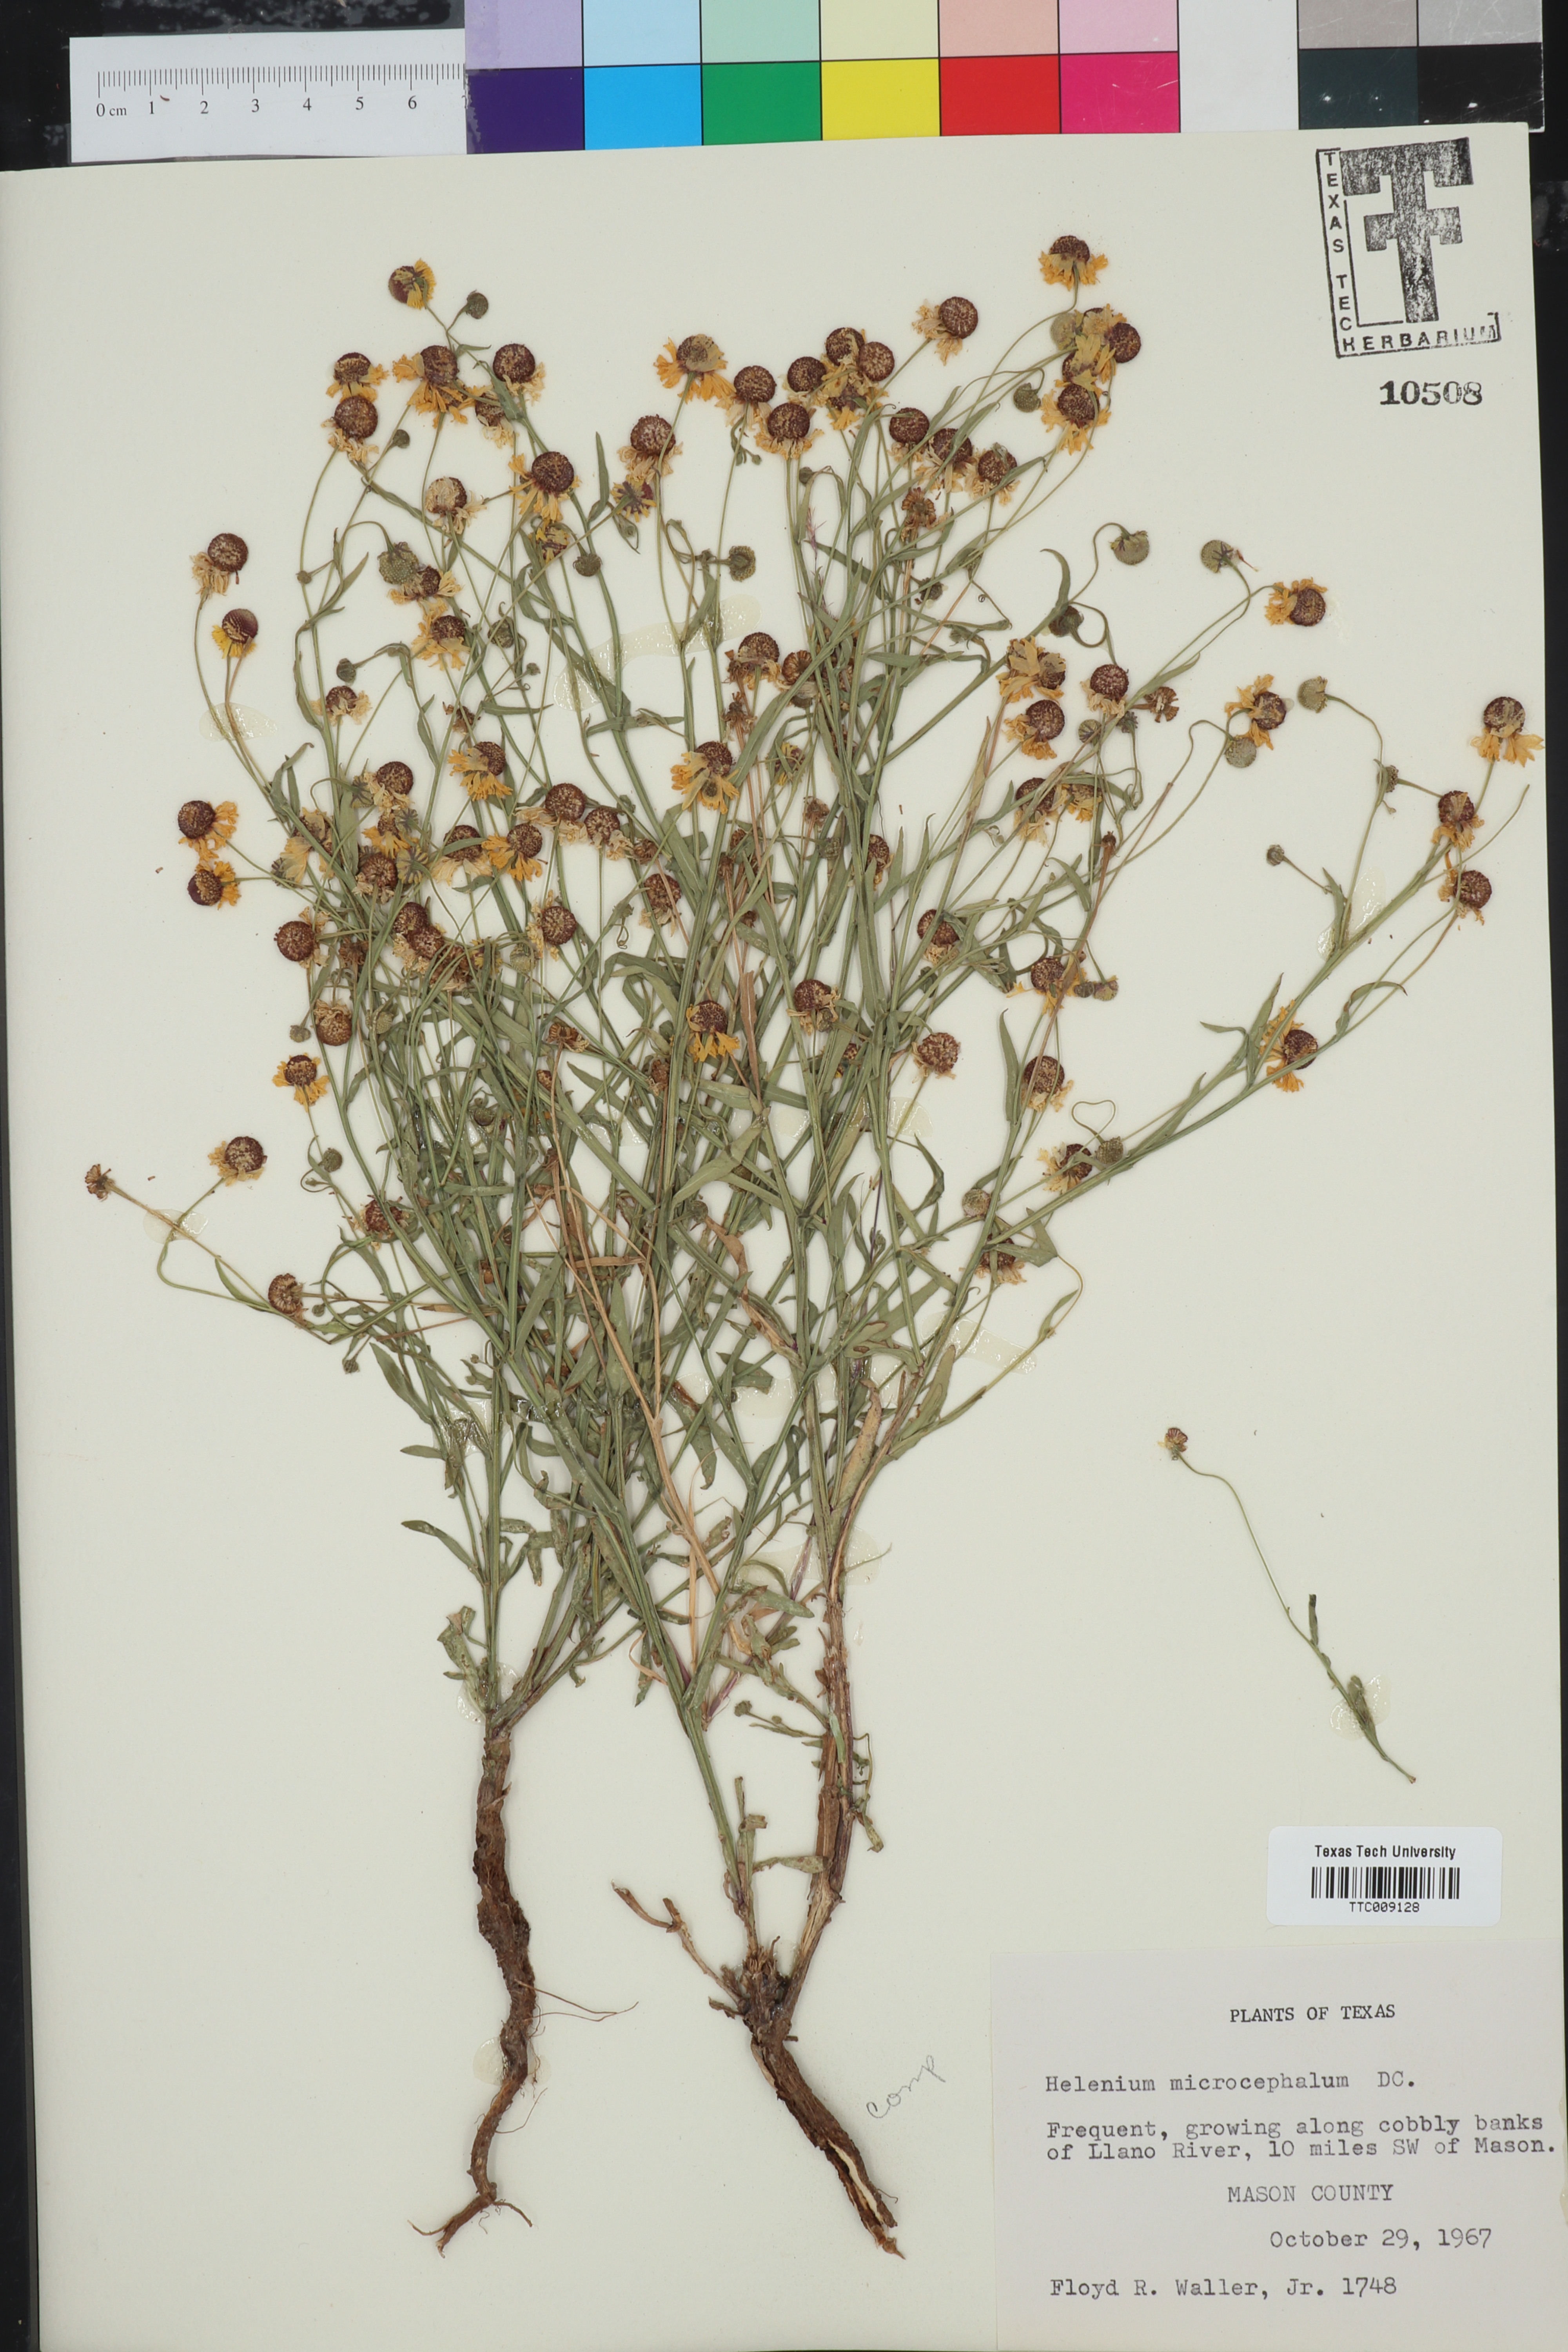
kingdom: Plantae
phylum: Tracheophyta
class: Magnoliopsida
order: Asterales
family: Asteraceae
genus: Helenium
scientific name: Helenium microcephalum
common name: Smallhead sneezeweed
